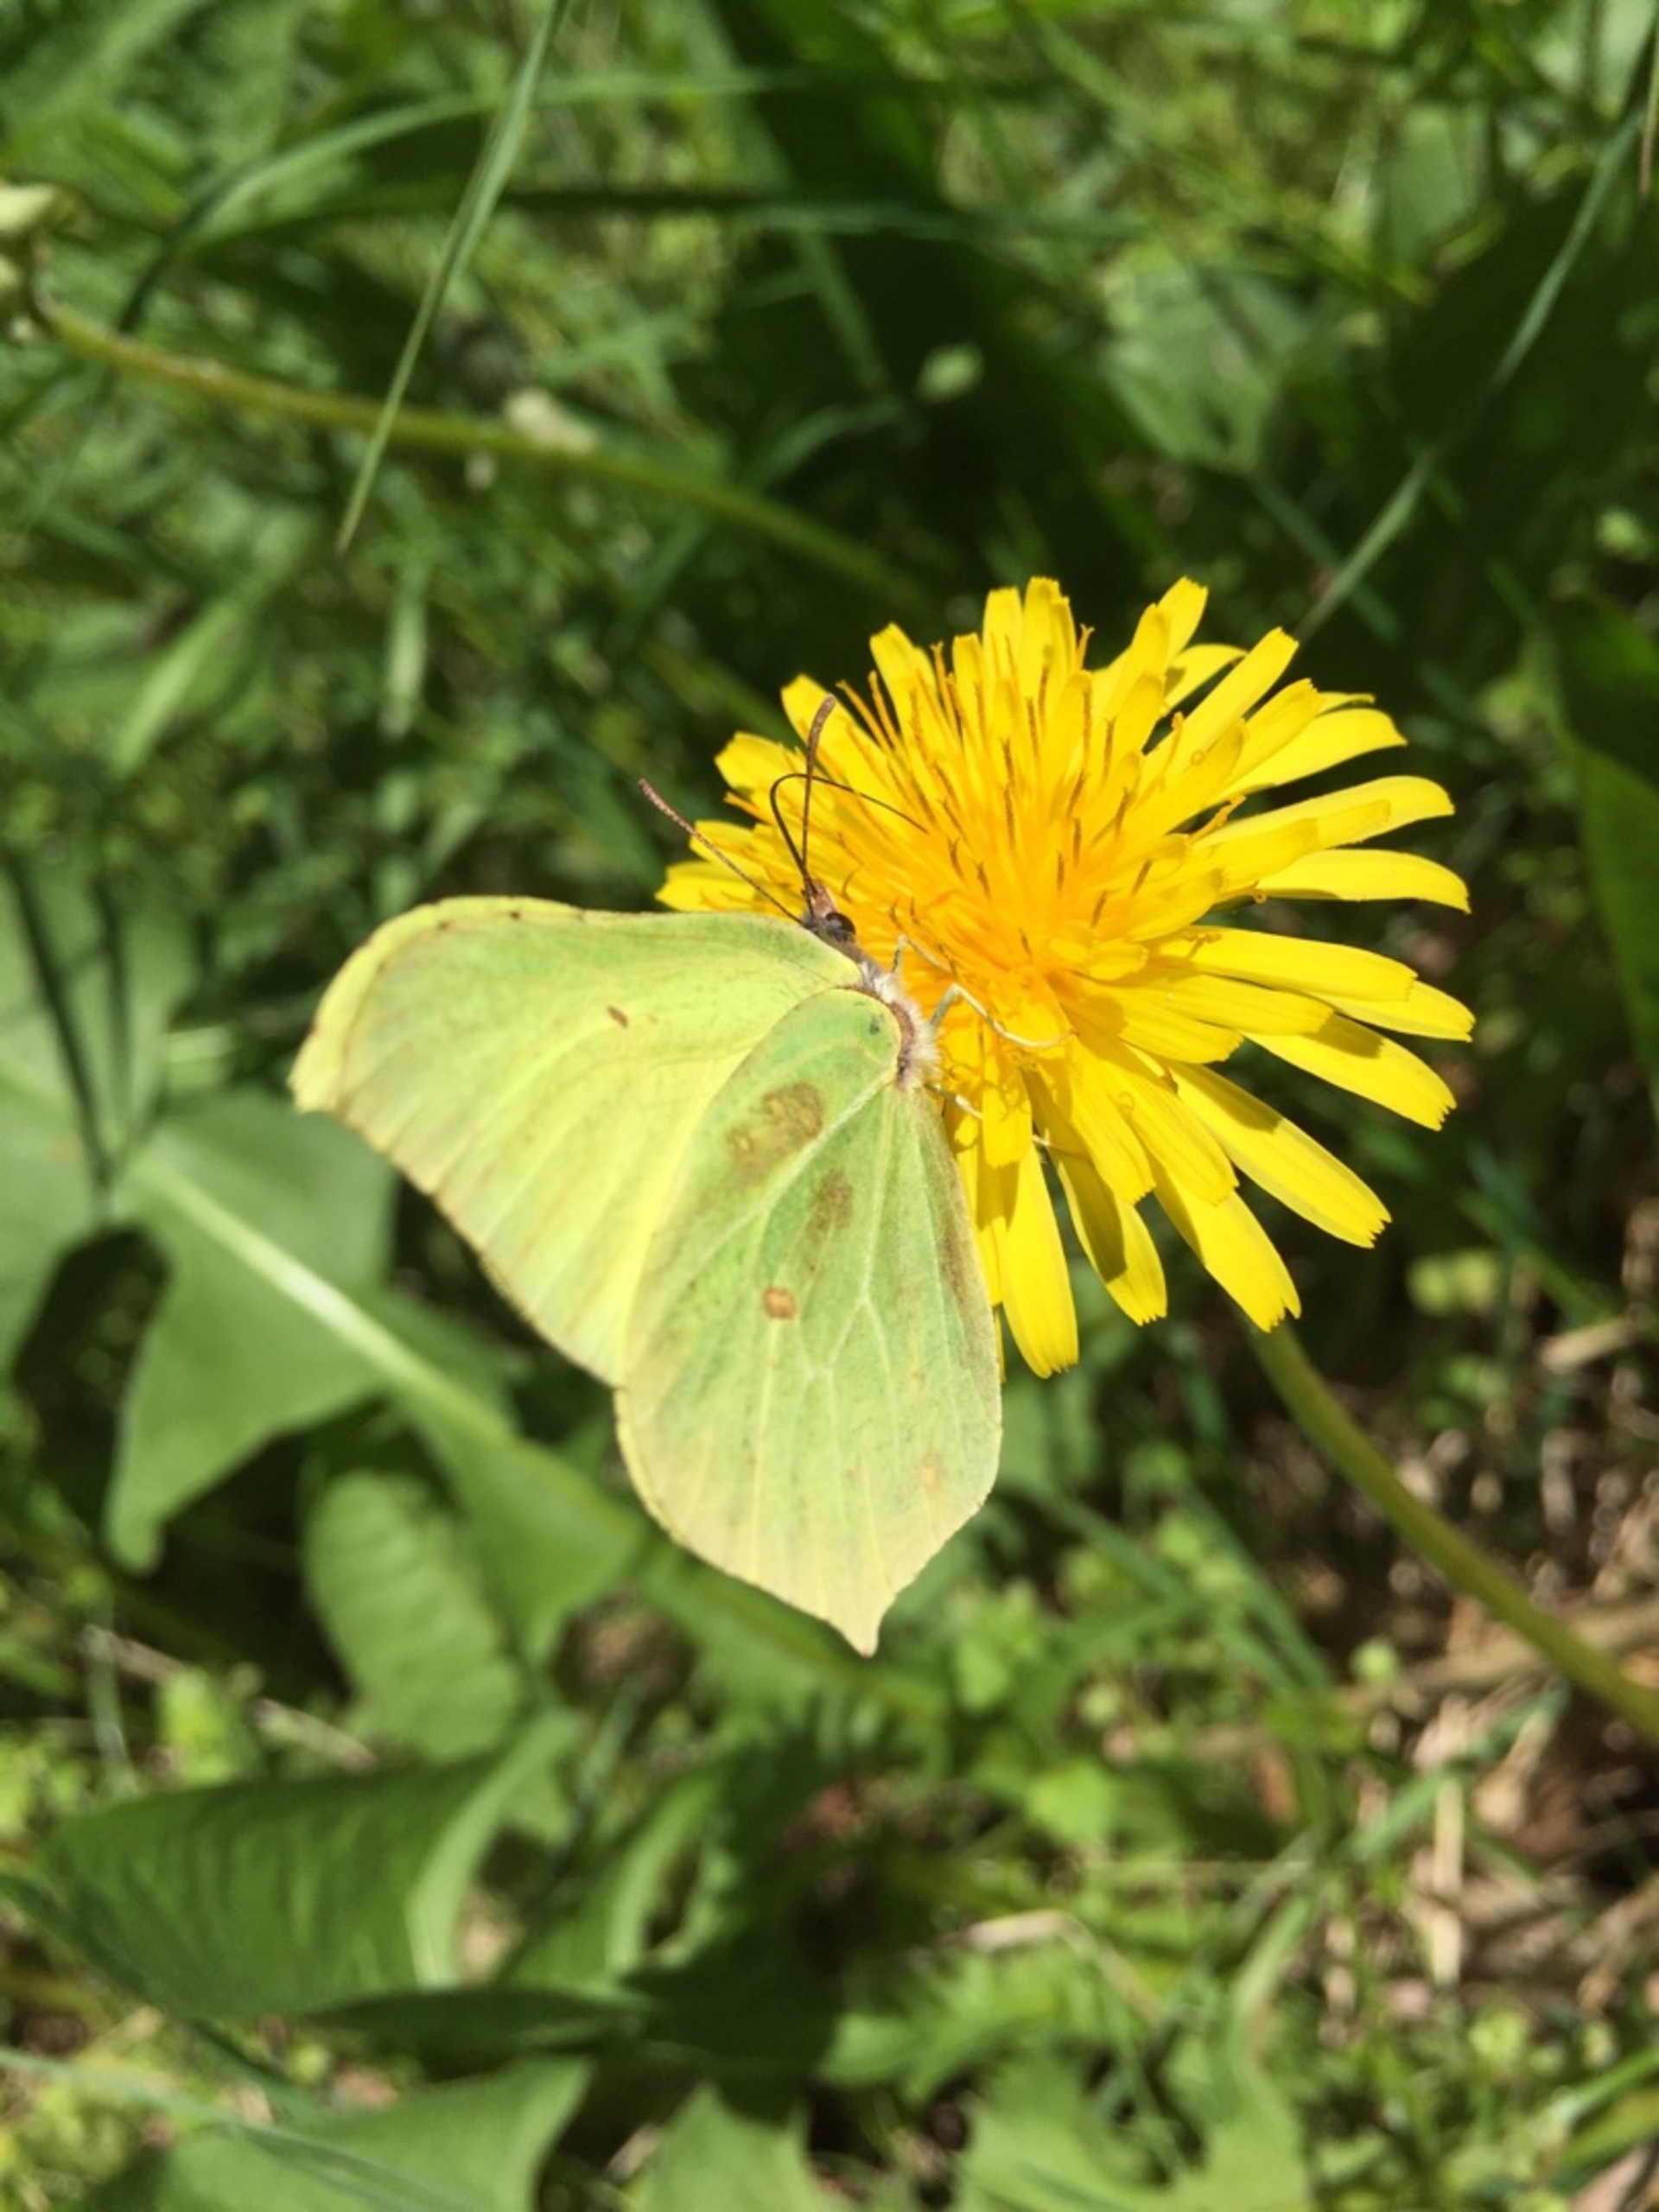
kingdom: Animalia
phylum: Arthropoda
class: Insecta
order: Lepidoptera
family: Pieridae
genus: Gonepteryx
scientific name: Gonepteryx rhamni
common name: Citronsommerfugl
